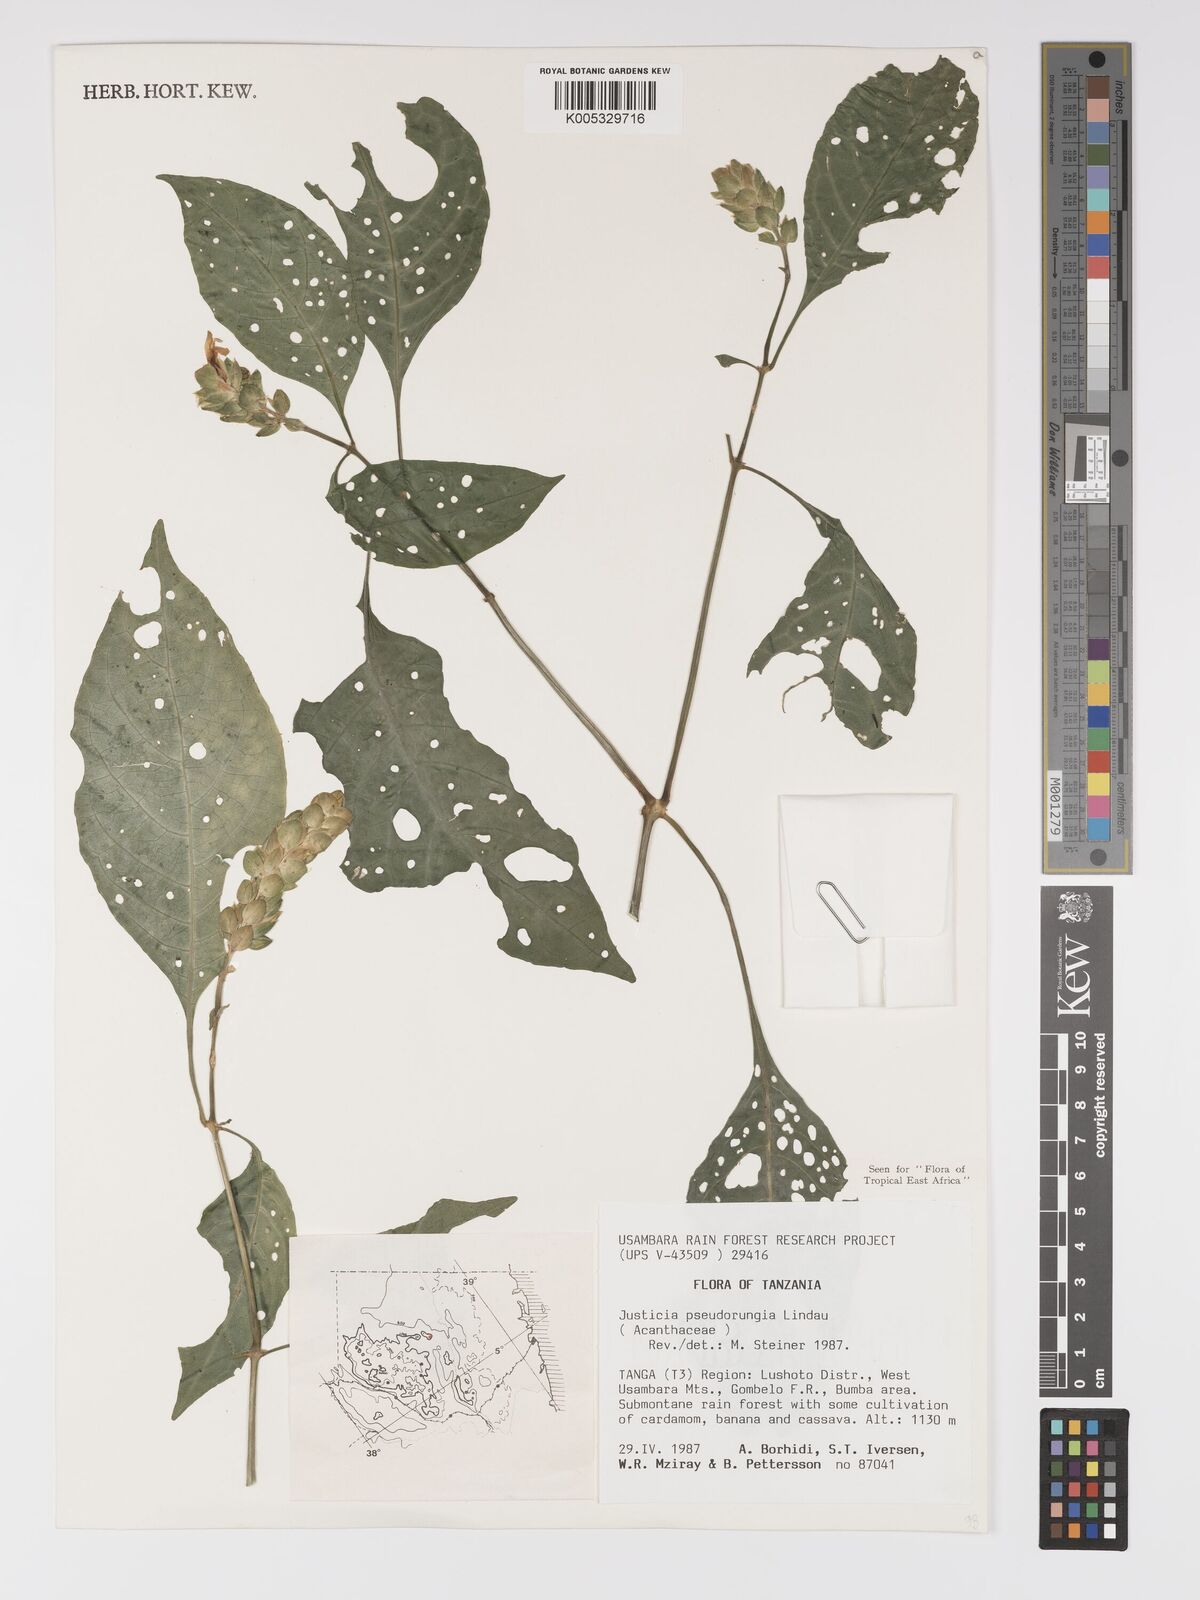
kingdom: Plantae
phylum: Tracheophyta
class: Magnoliopsida
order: Lamiales
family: Acanthaceae
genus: Justicia
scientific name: Justicia pseudorungia
